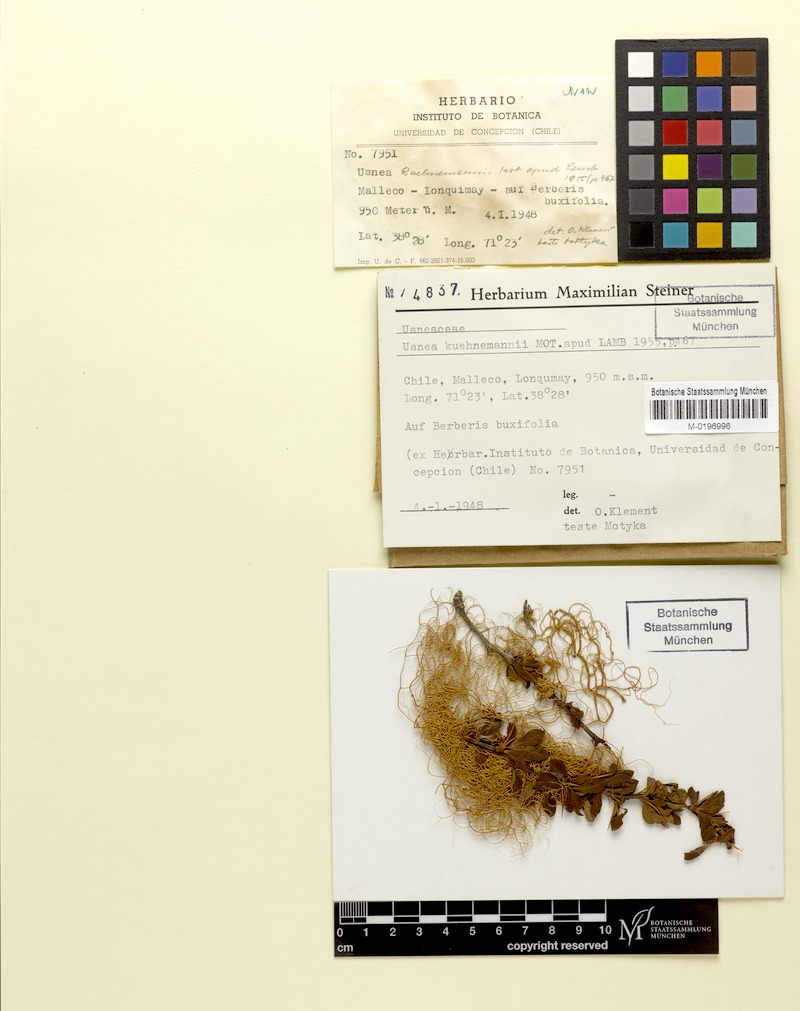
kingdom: Fungi
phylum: Ascomycota
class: Lecanoromycetes
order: Lecanorales
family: Parmeliaceae
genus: Usnea
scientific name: Usnea
